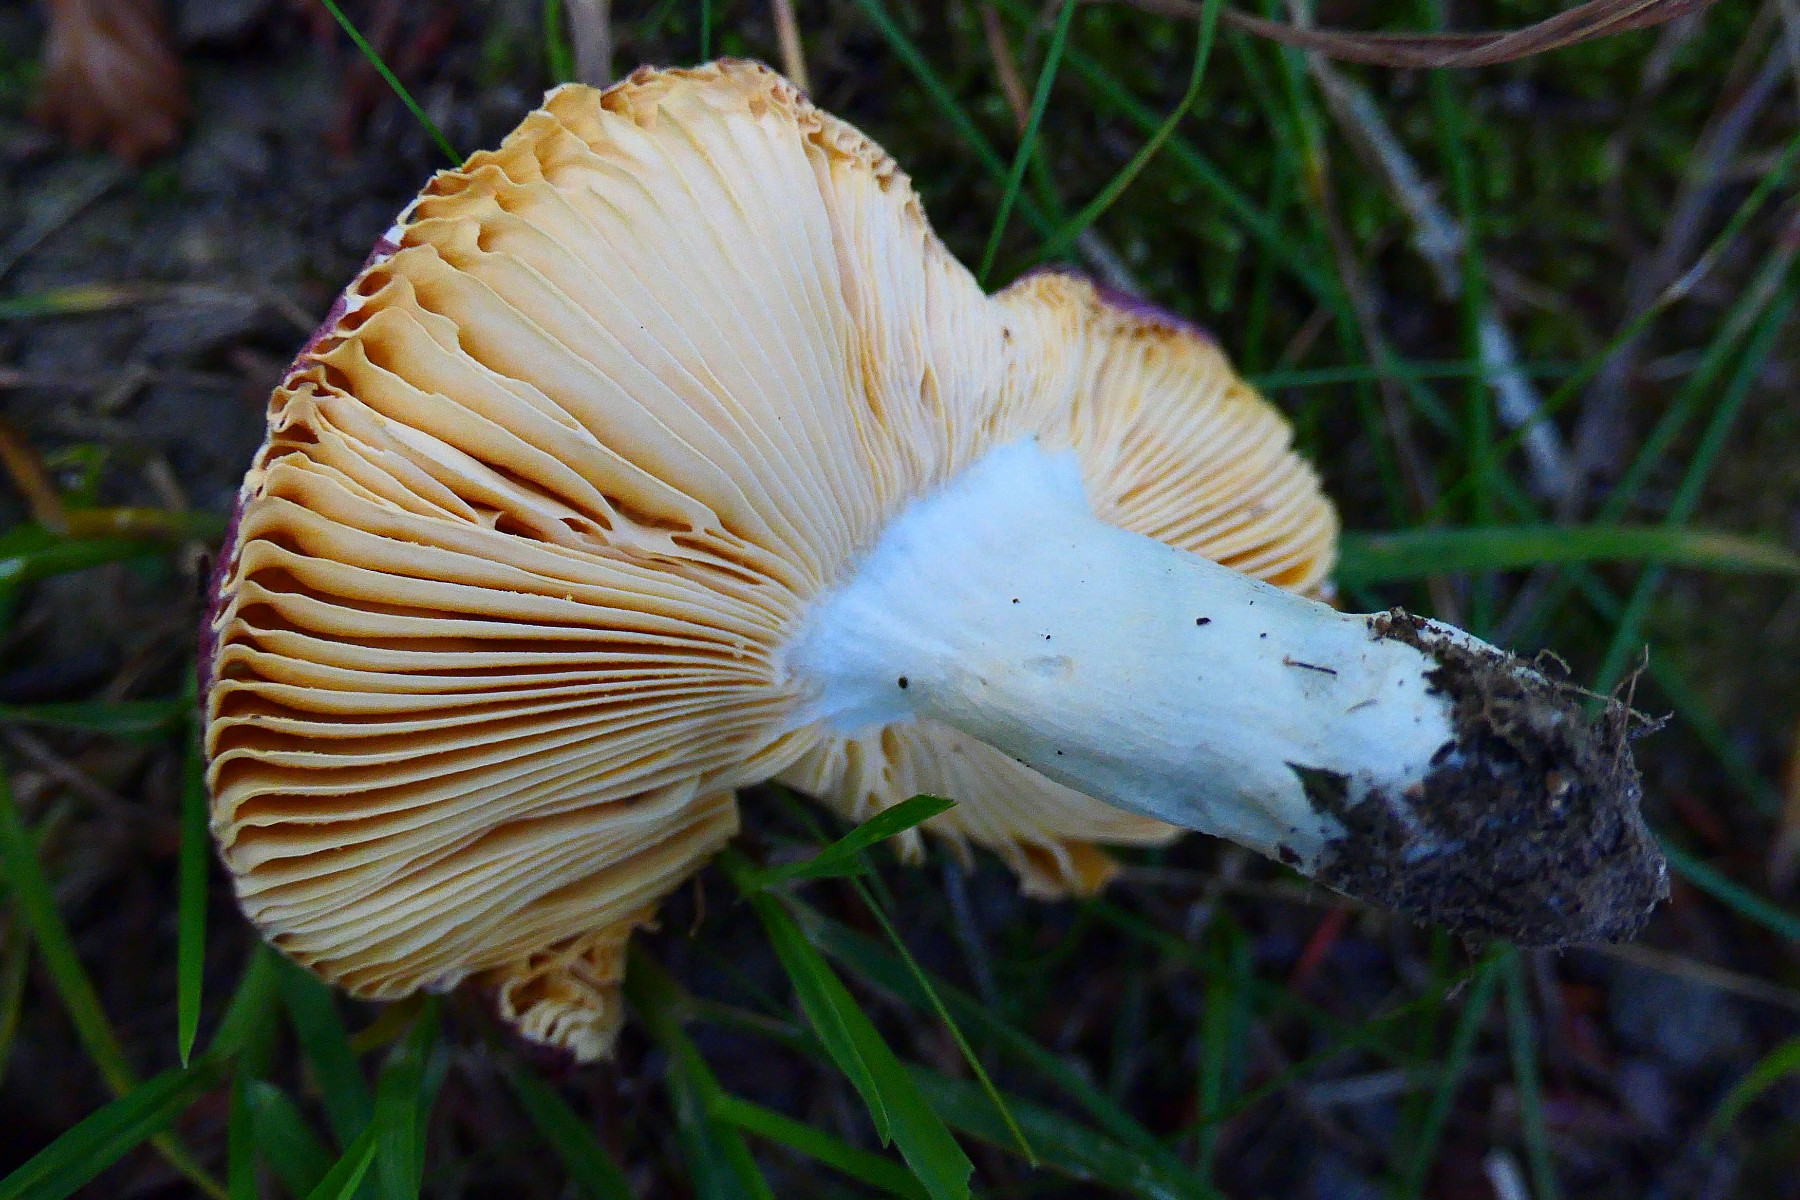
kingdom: Fungi
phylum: Basidiomycota
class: Agaricomycetes
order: Russulales
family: Russulaceae
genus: Russula
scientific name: Russula cuprea
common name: kanel-skørhat
